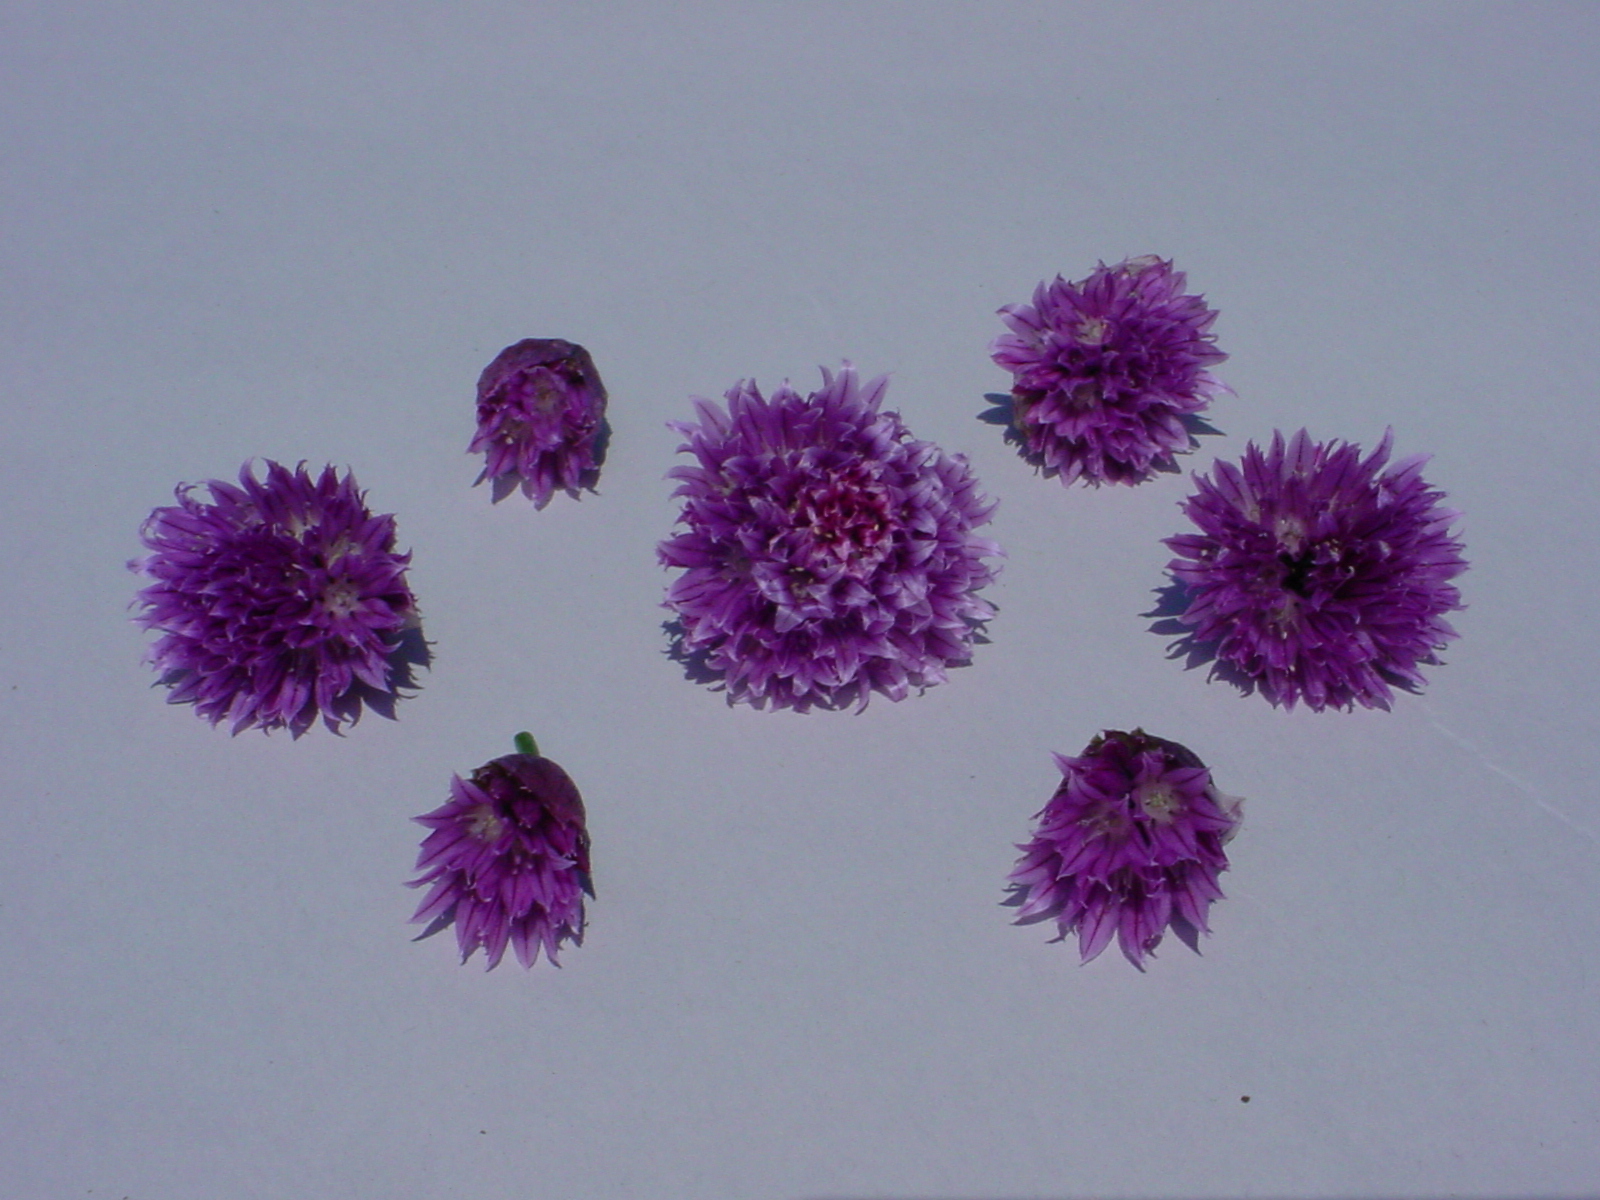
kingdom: Plantae
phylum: Tracheophyta
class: Liliopsida
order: Asparagales
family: Amaryllidaceae
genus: Allium
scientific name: Allium schoenoprasum
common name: Chives
